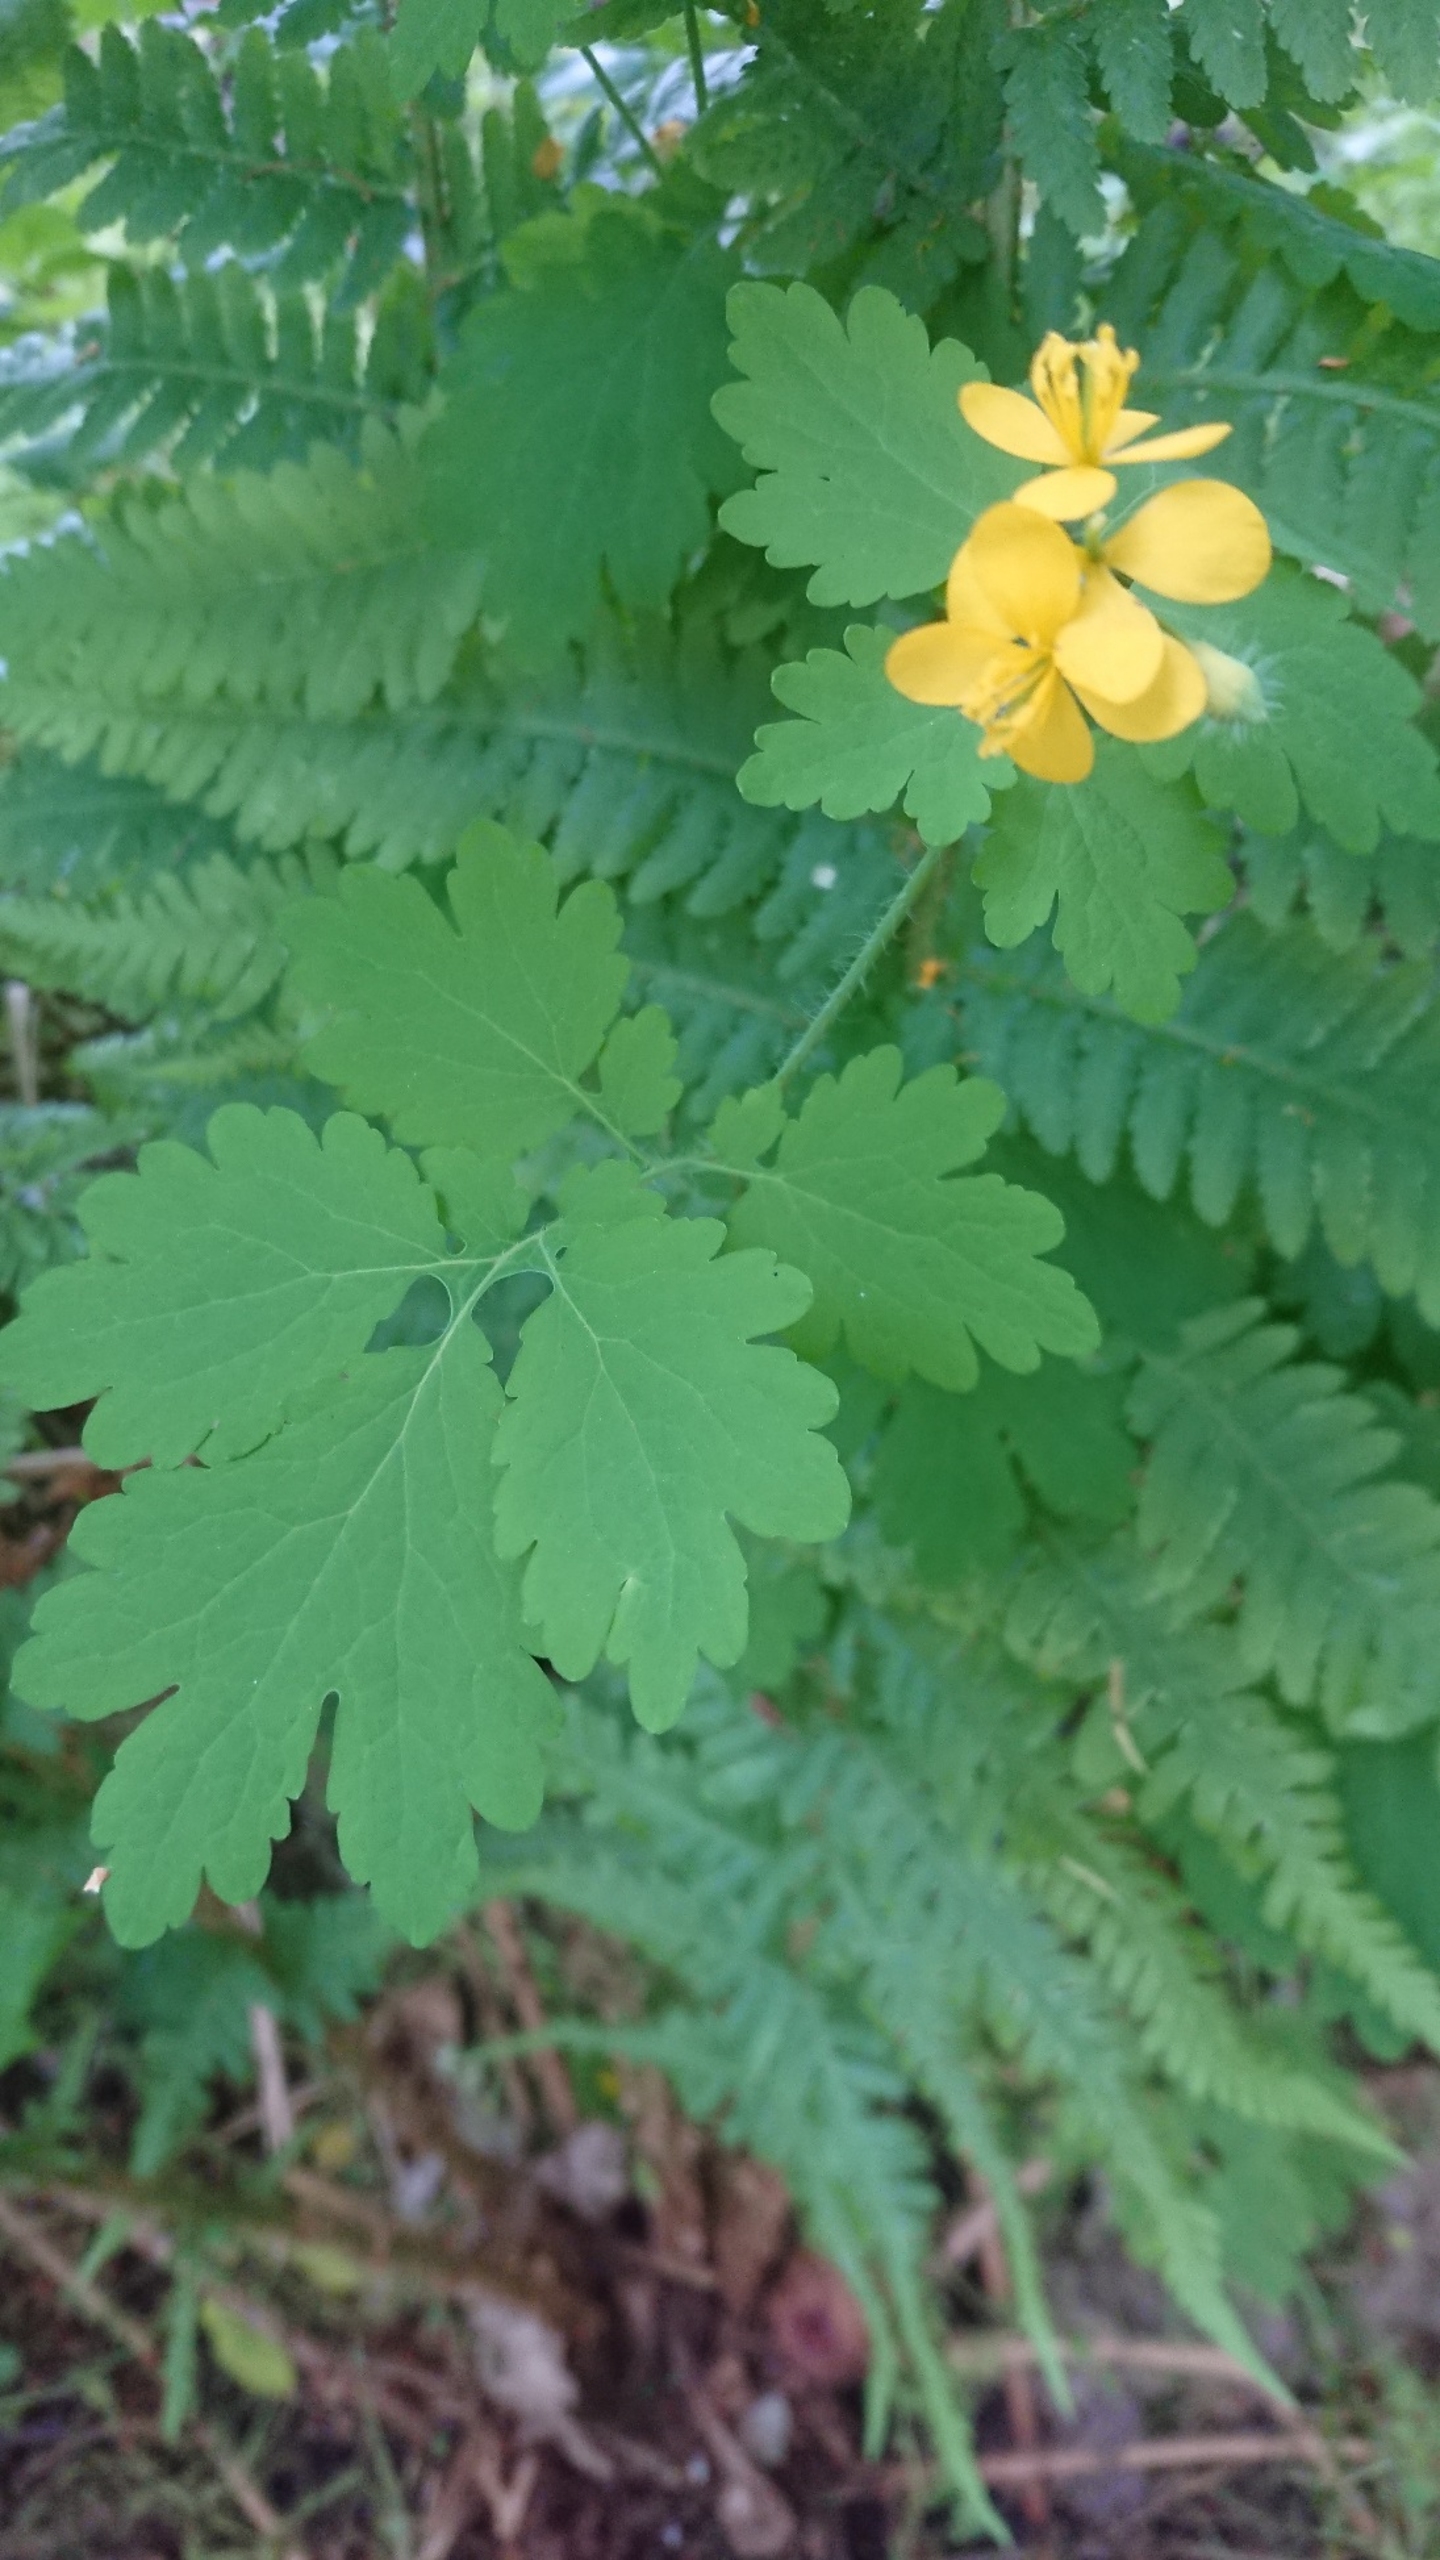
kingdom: Plantae
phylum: Tracheophyta
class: Magnoliopsida
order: Ranunculales
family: Papaveraceae
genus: Chelidonium
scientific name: Chelidonium majus
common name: Svaleurt
